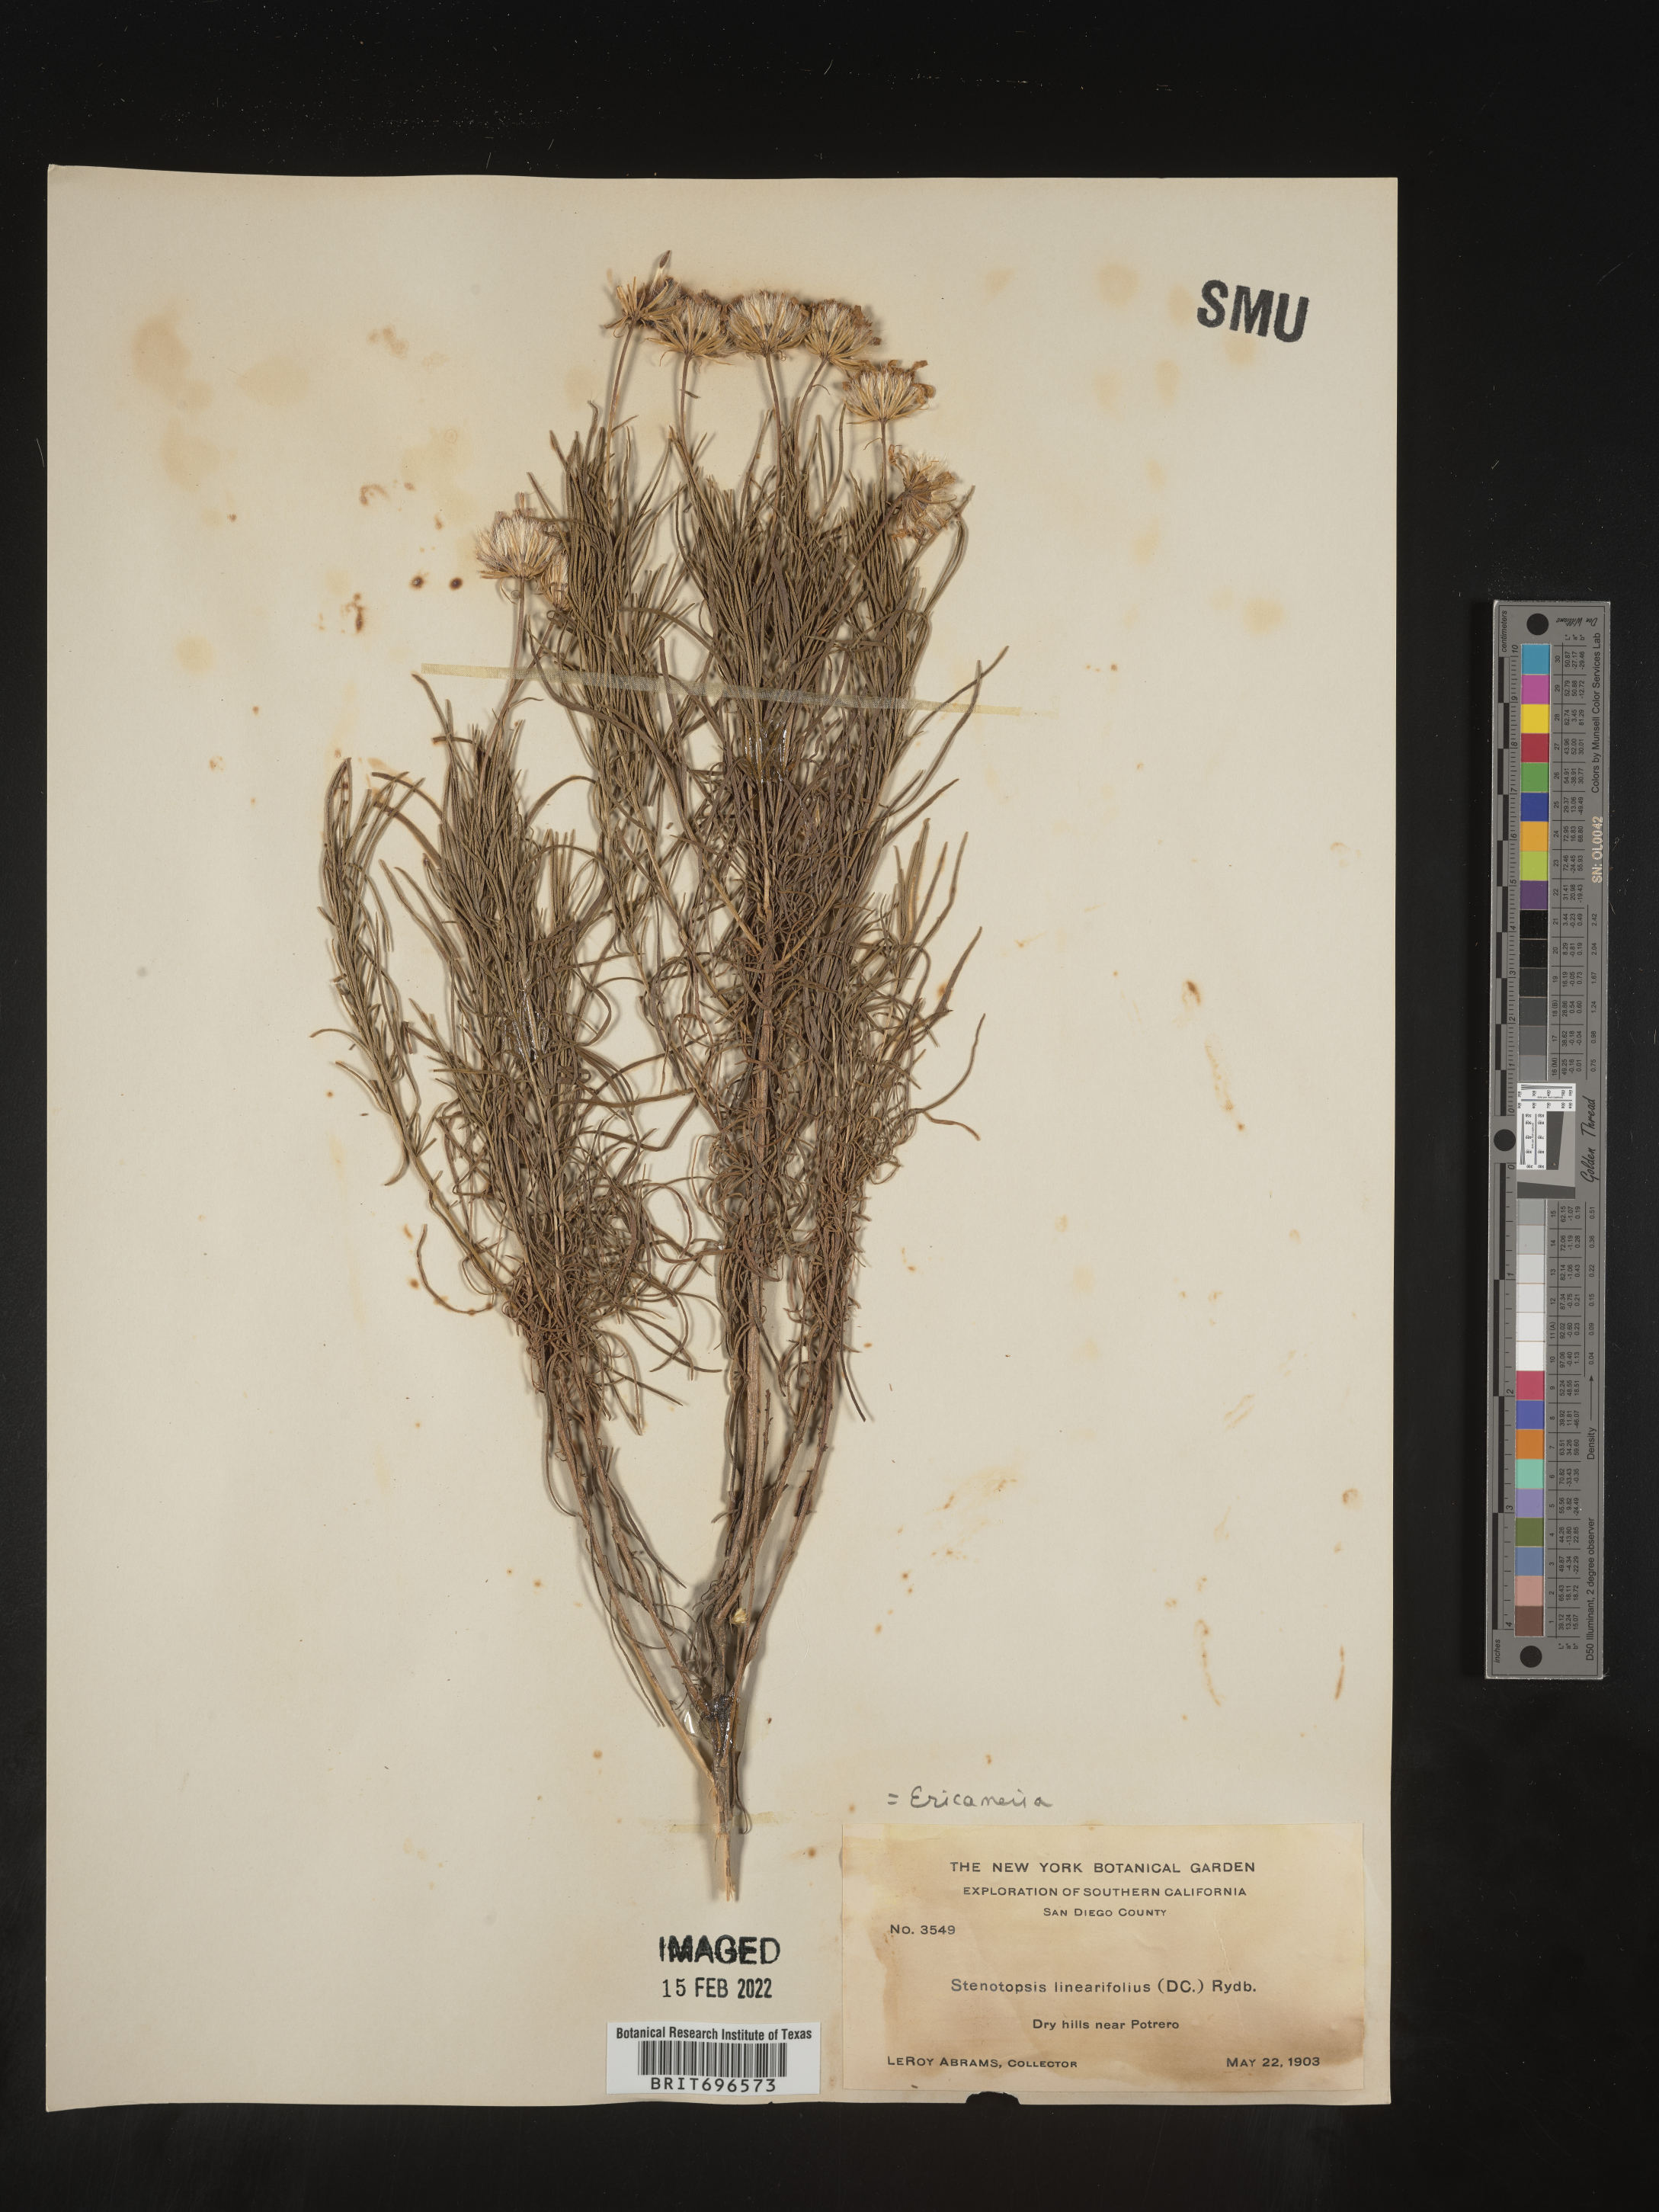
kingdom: Plantae
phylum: Tracheophyta
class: Magnoliopsida
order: Asterales
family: Asteraceae
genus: Ericameria
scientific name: Ericameria linearifolia
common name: Interior goldenbush
